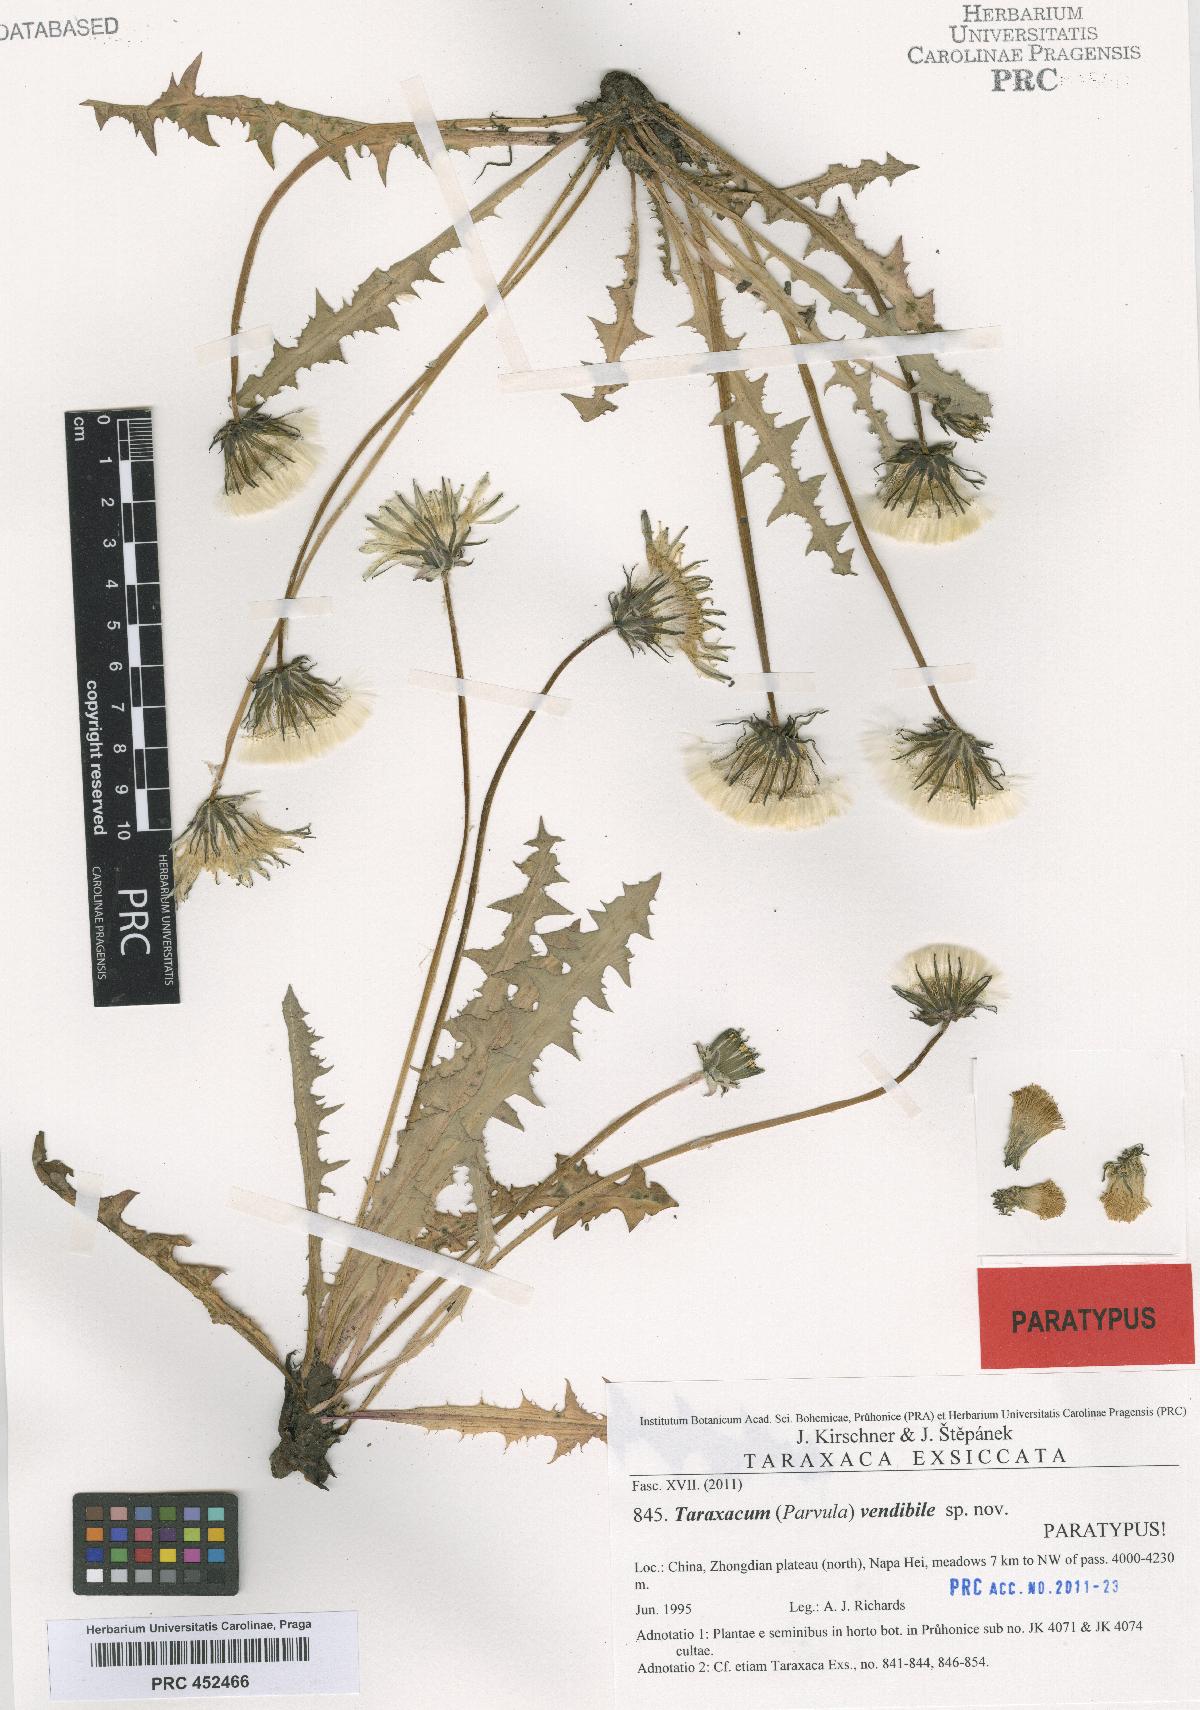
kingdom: Plantae
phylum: Tracheophyta
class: Magnoliopsida
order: Asterales
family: Asteraceae
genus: Taraxacum
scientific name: Taraxacum vendibile
